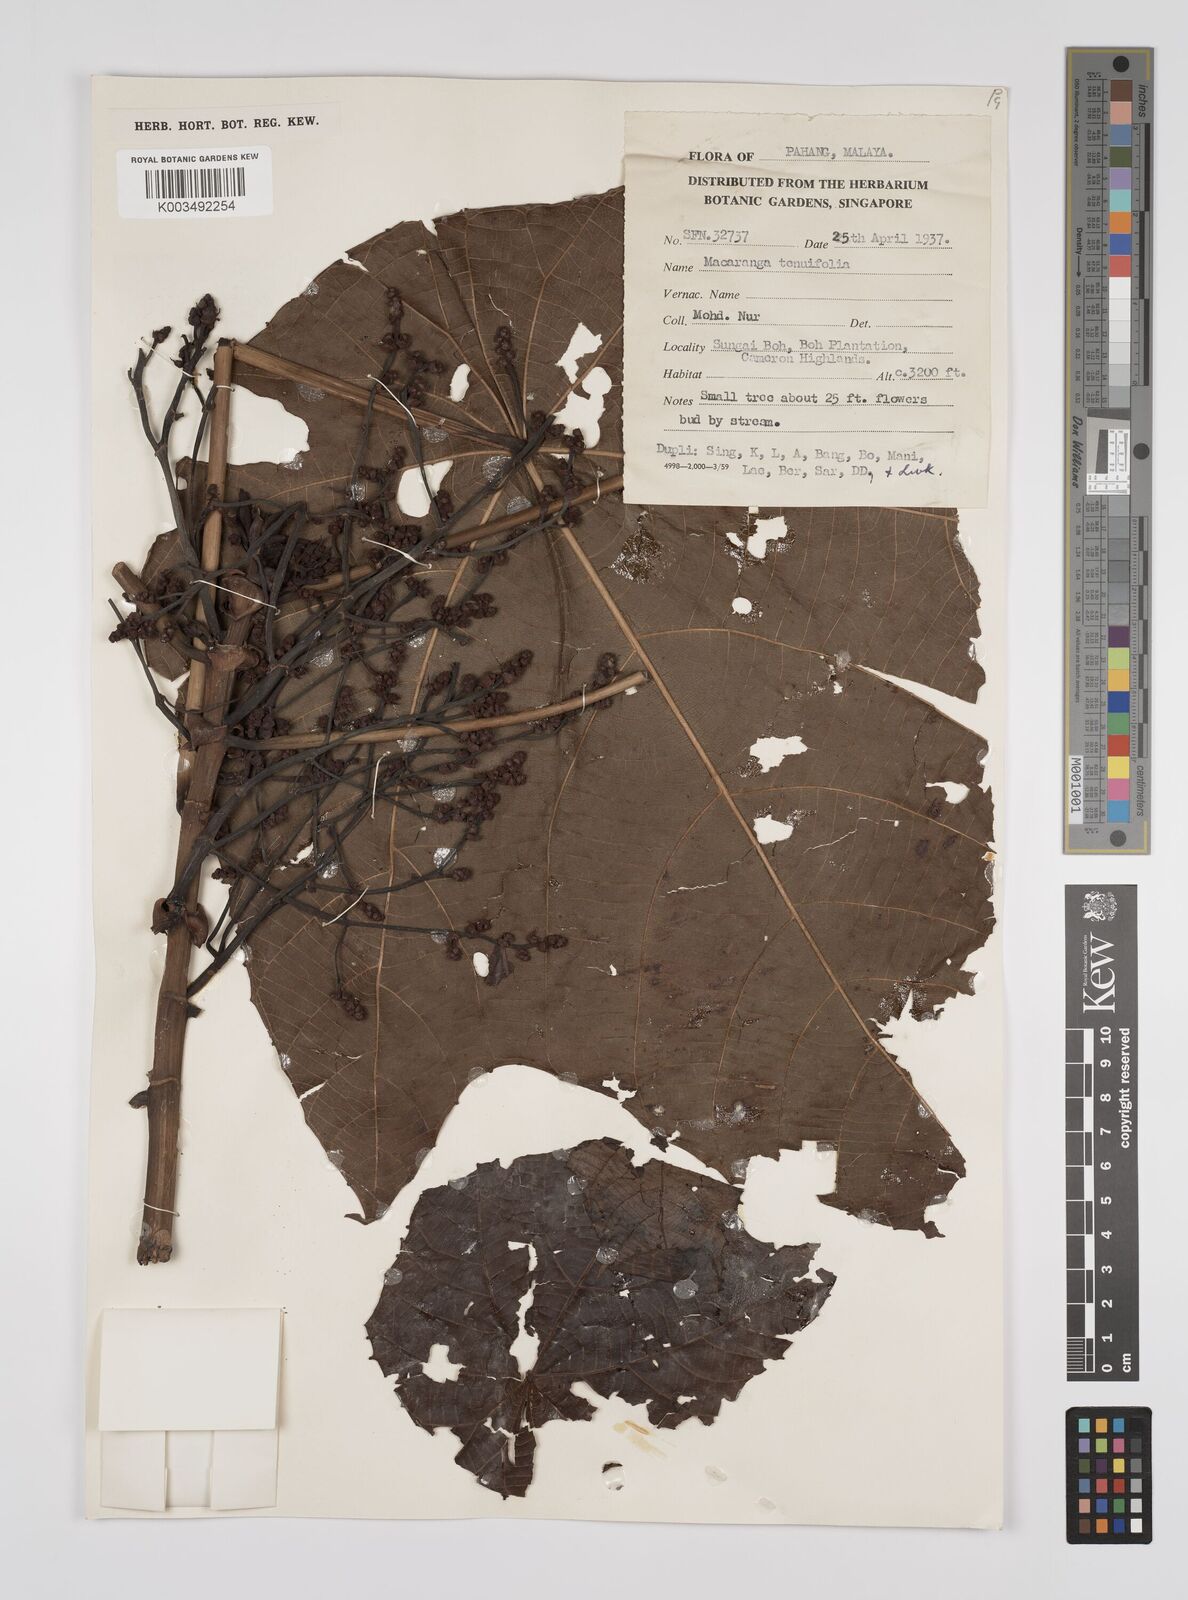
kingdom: Plantae
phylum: Tracheophyta
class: Magnoliopsida
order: Malpighiales
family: Euphorbiaceae
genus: Macaranga
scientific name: Macaranga triloba
